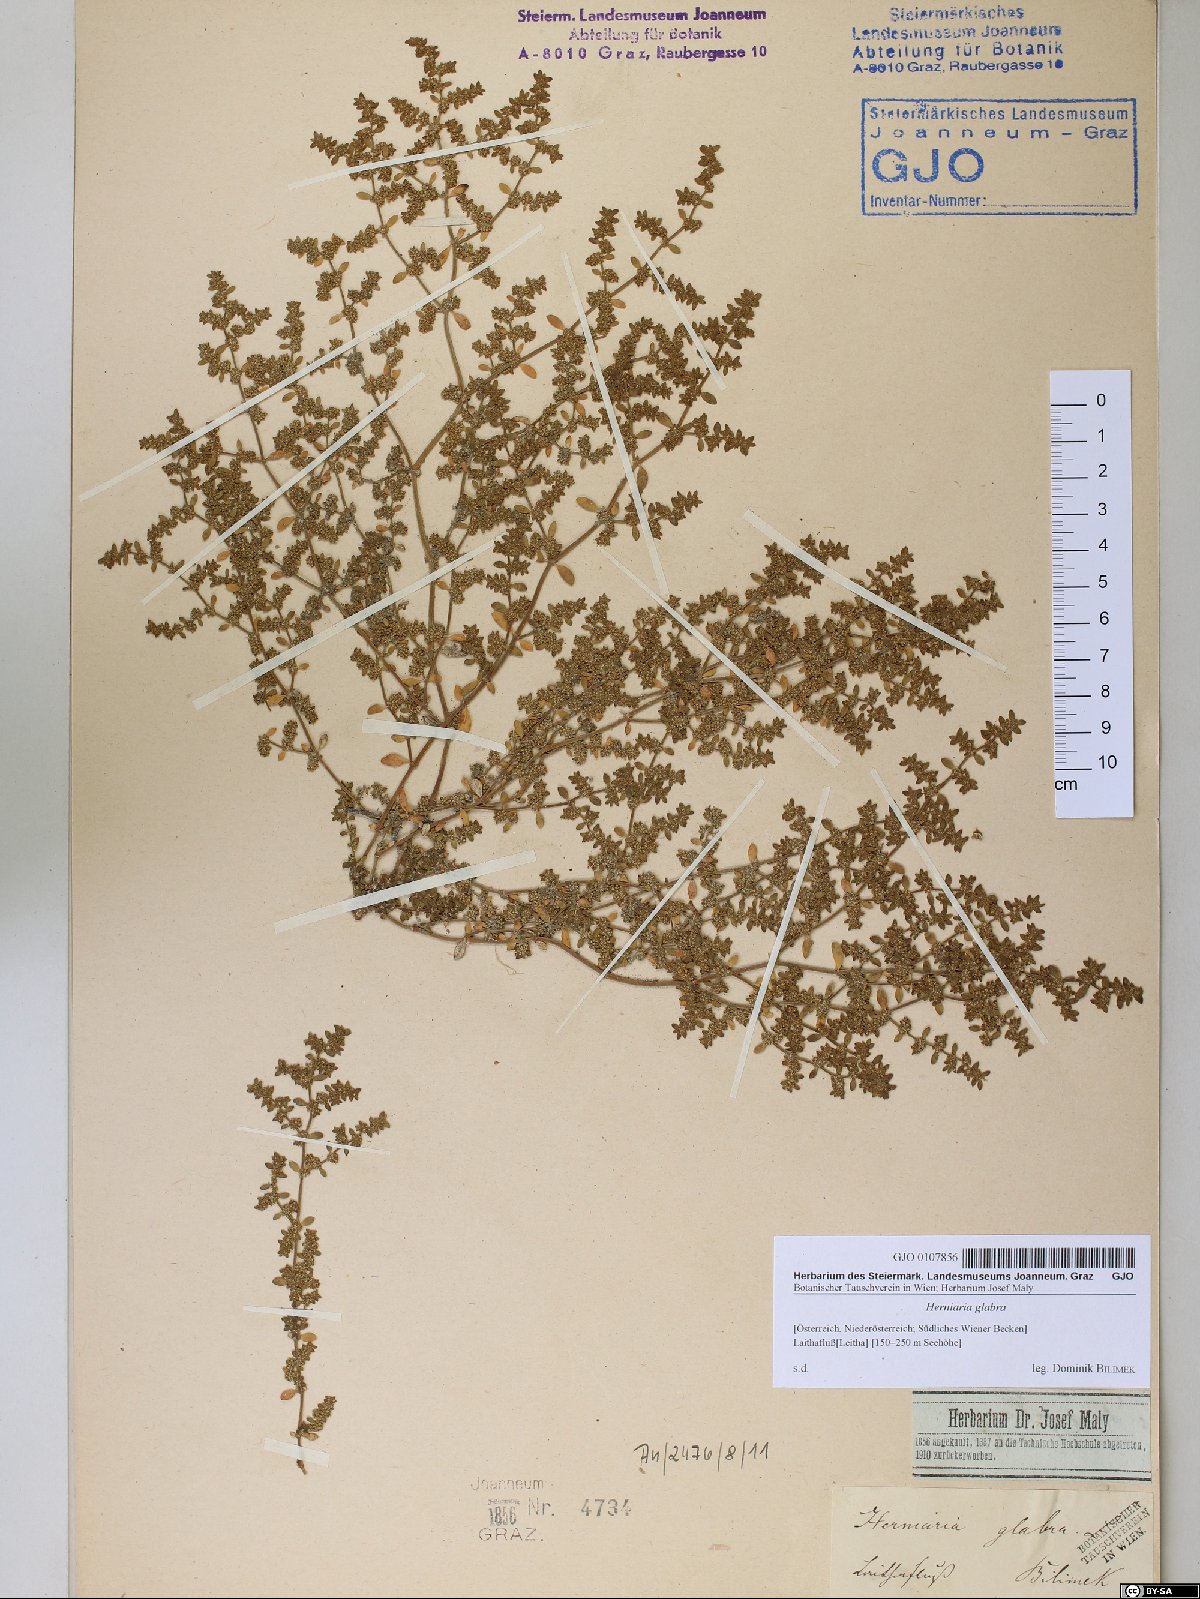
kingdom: Plantae
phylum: Tracheophyta
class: Magnoliopsida
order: Caryophyllales
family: Caryophyllaceae
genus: Herniaria
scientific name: Herniaria glabra
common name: Smooth rupturewort
